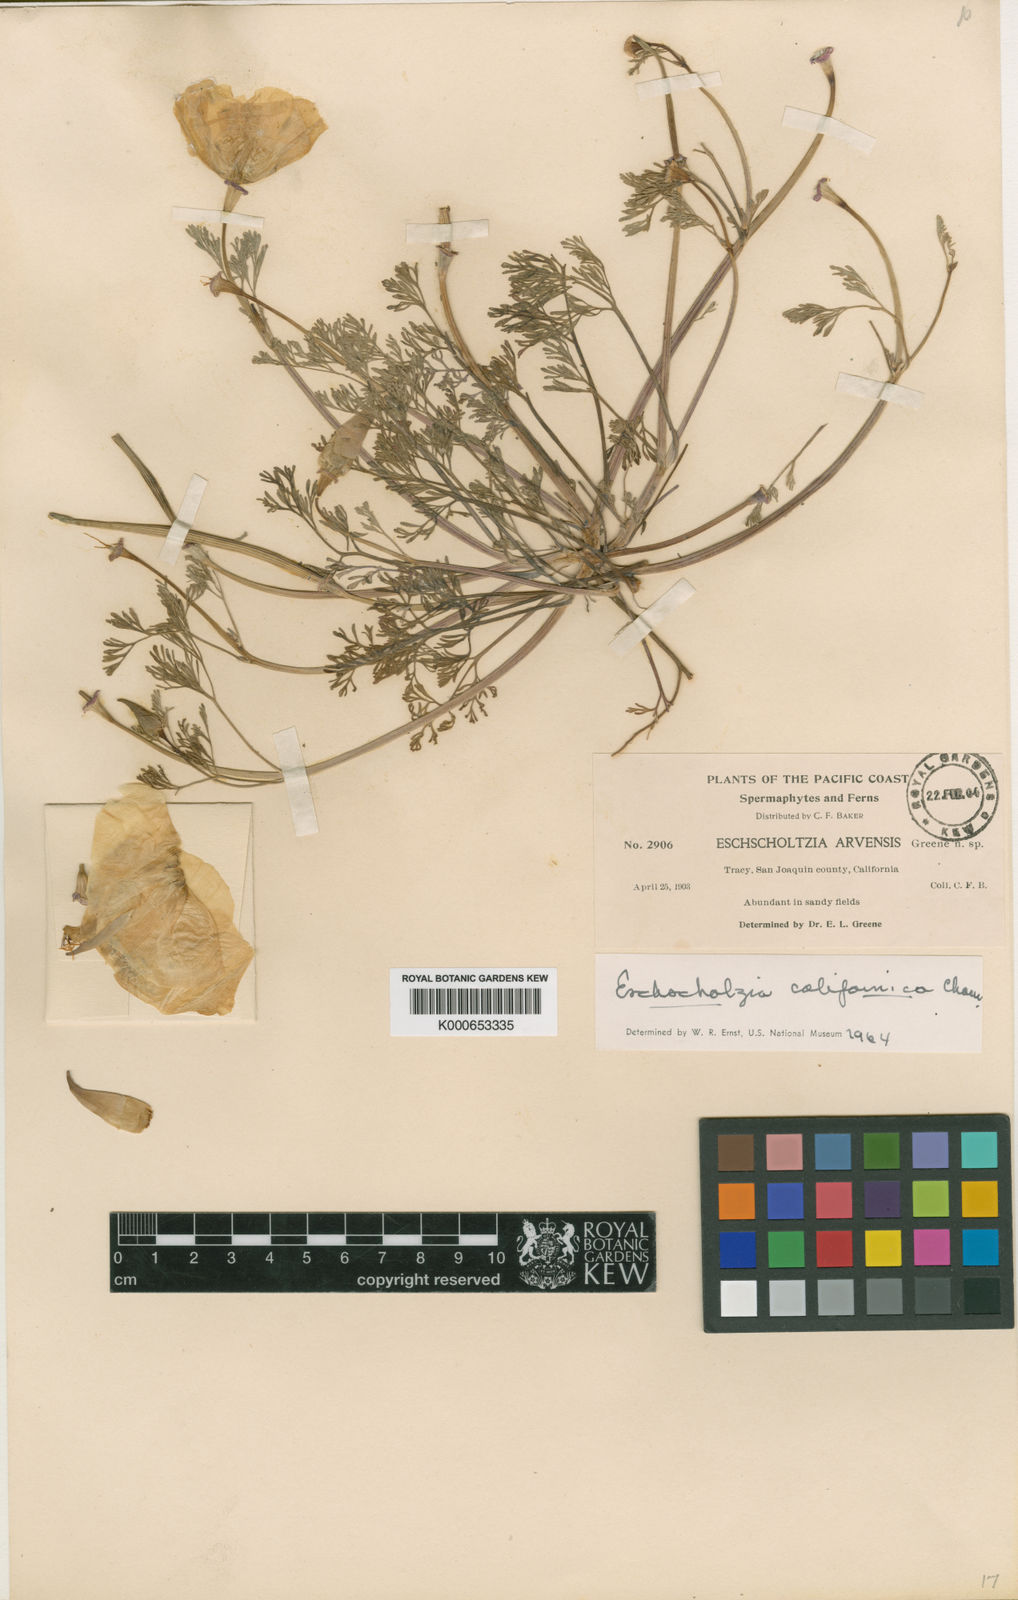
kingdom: Plantae
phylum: Tracheophyta
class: Magnoliopsida
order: Ranunculales
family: Papaveraceae
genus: Eschscholzia
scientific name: Eschscholzia californica
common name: California poppy
